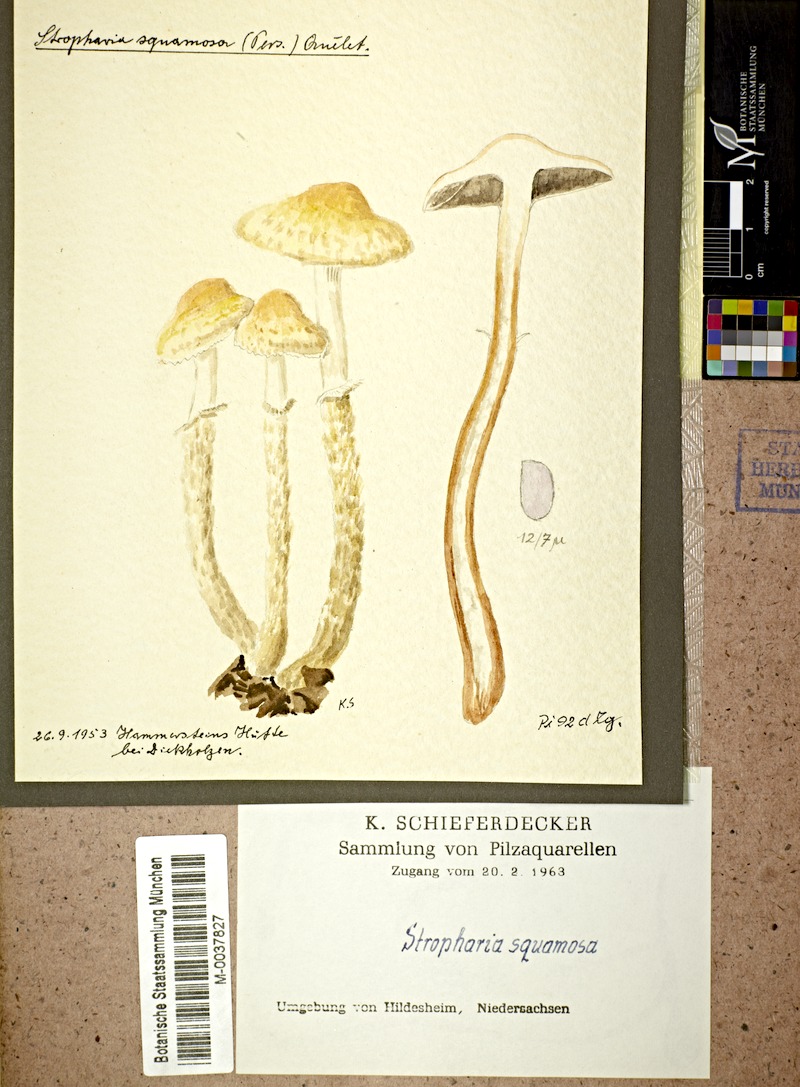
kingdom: Fungi
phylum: Basidiomycota
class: Agaricomycetes
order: Agaricales
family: Strophariaceae
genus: Leratiomyces
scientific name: Leratiomyces squamosus
